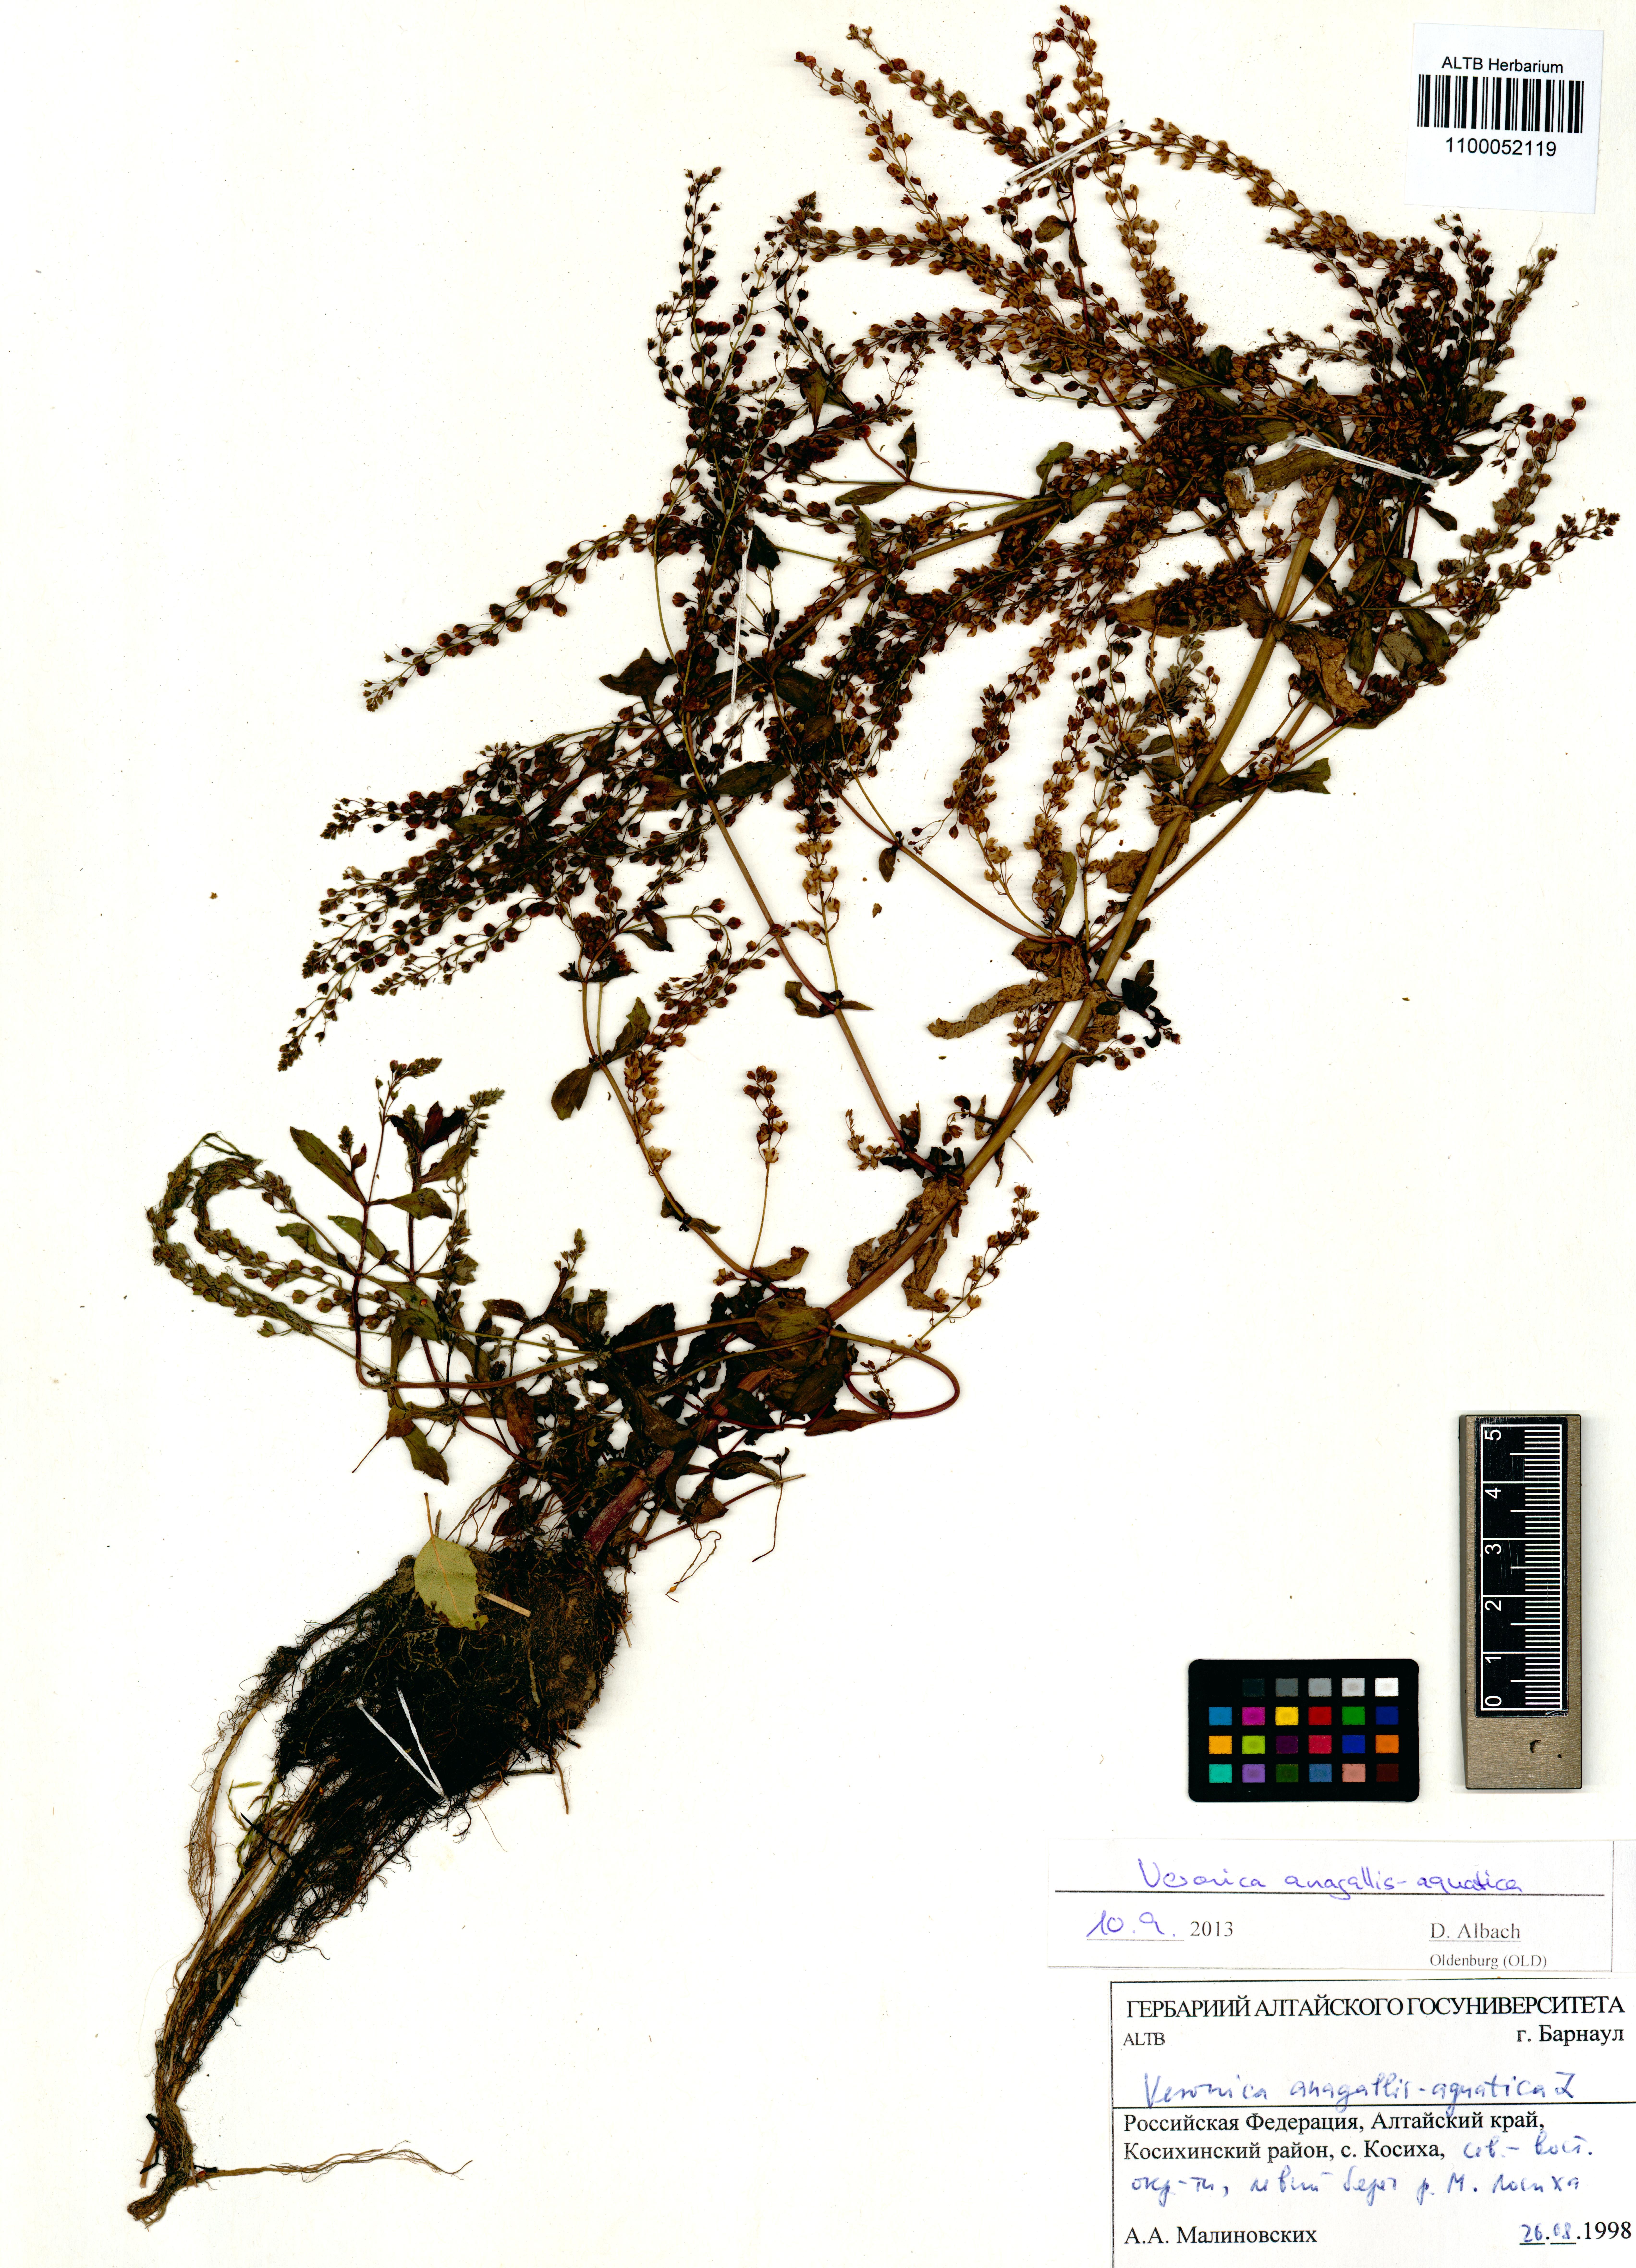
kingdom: Plantae
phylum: Tracheophyta
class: Magnoliopsida
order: Lamiales
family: Plantaginaceae
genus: Veronica
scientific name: Veronica anagallis-aquatica
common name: Water speedwell
